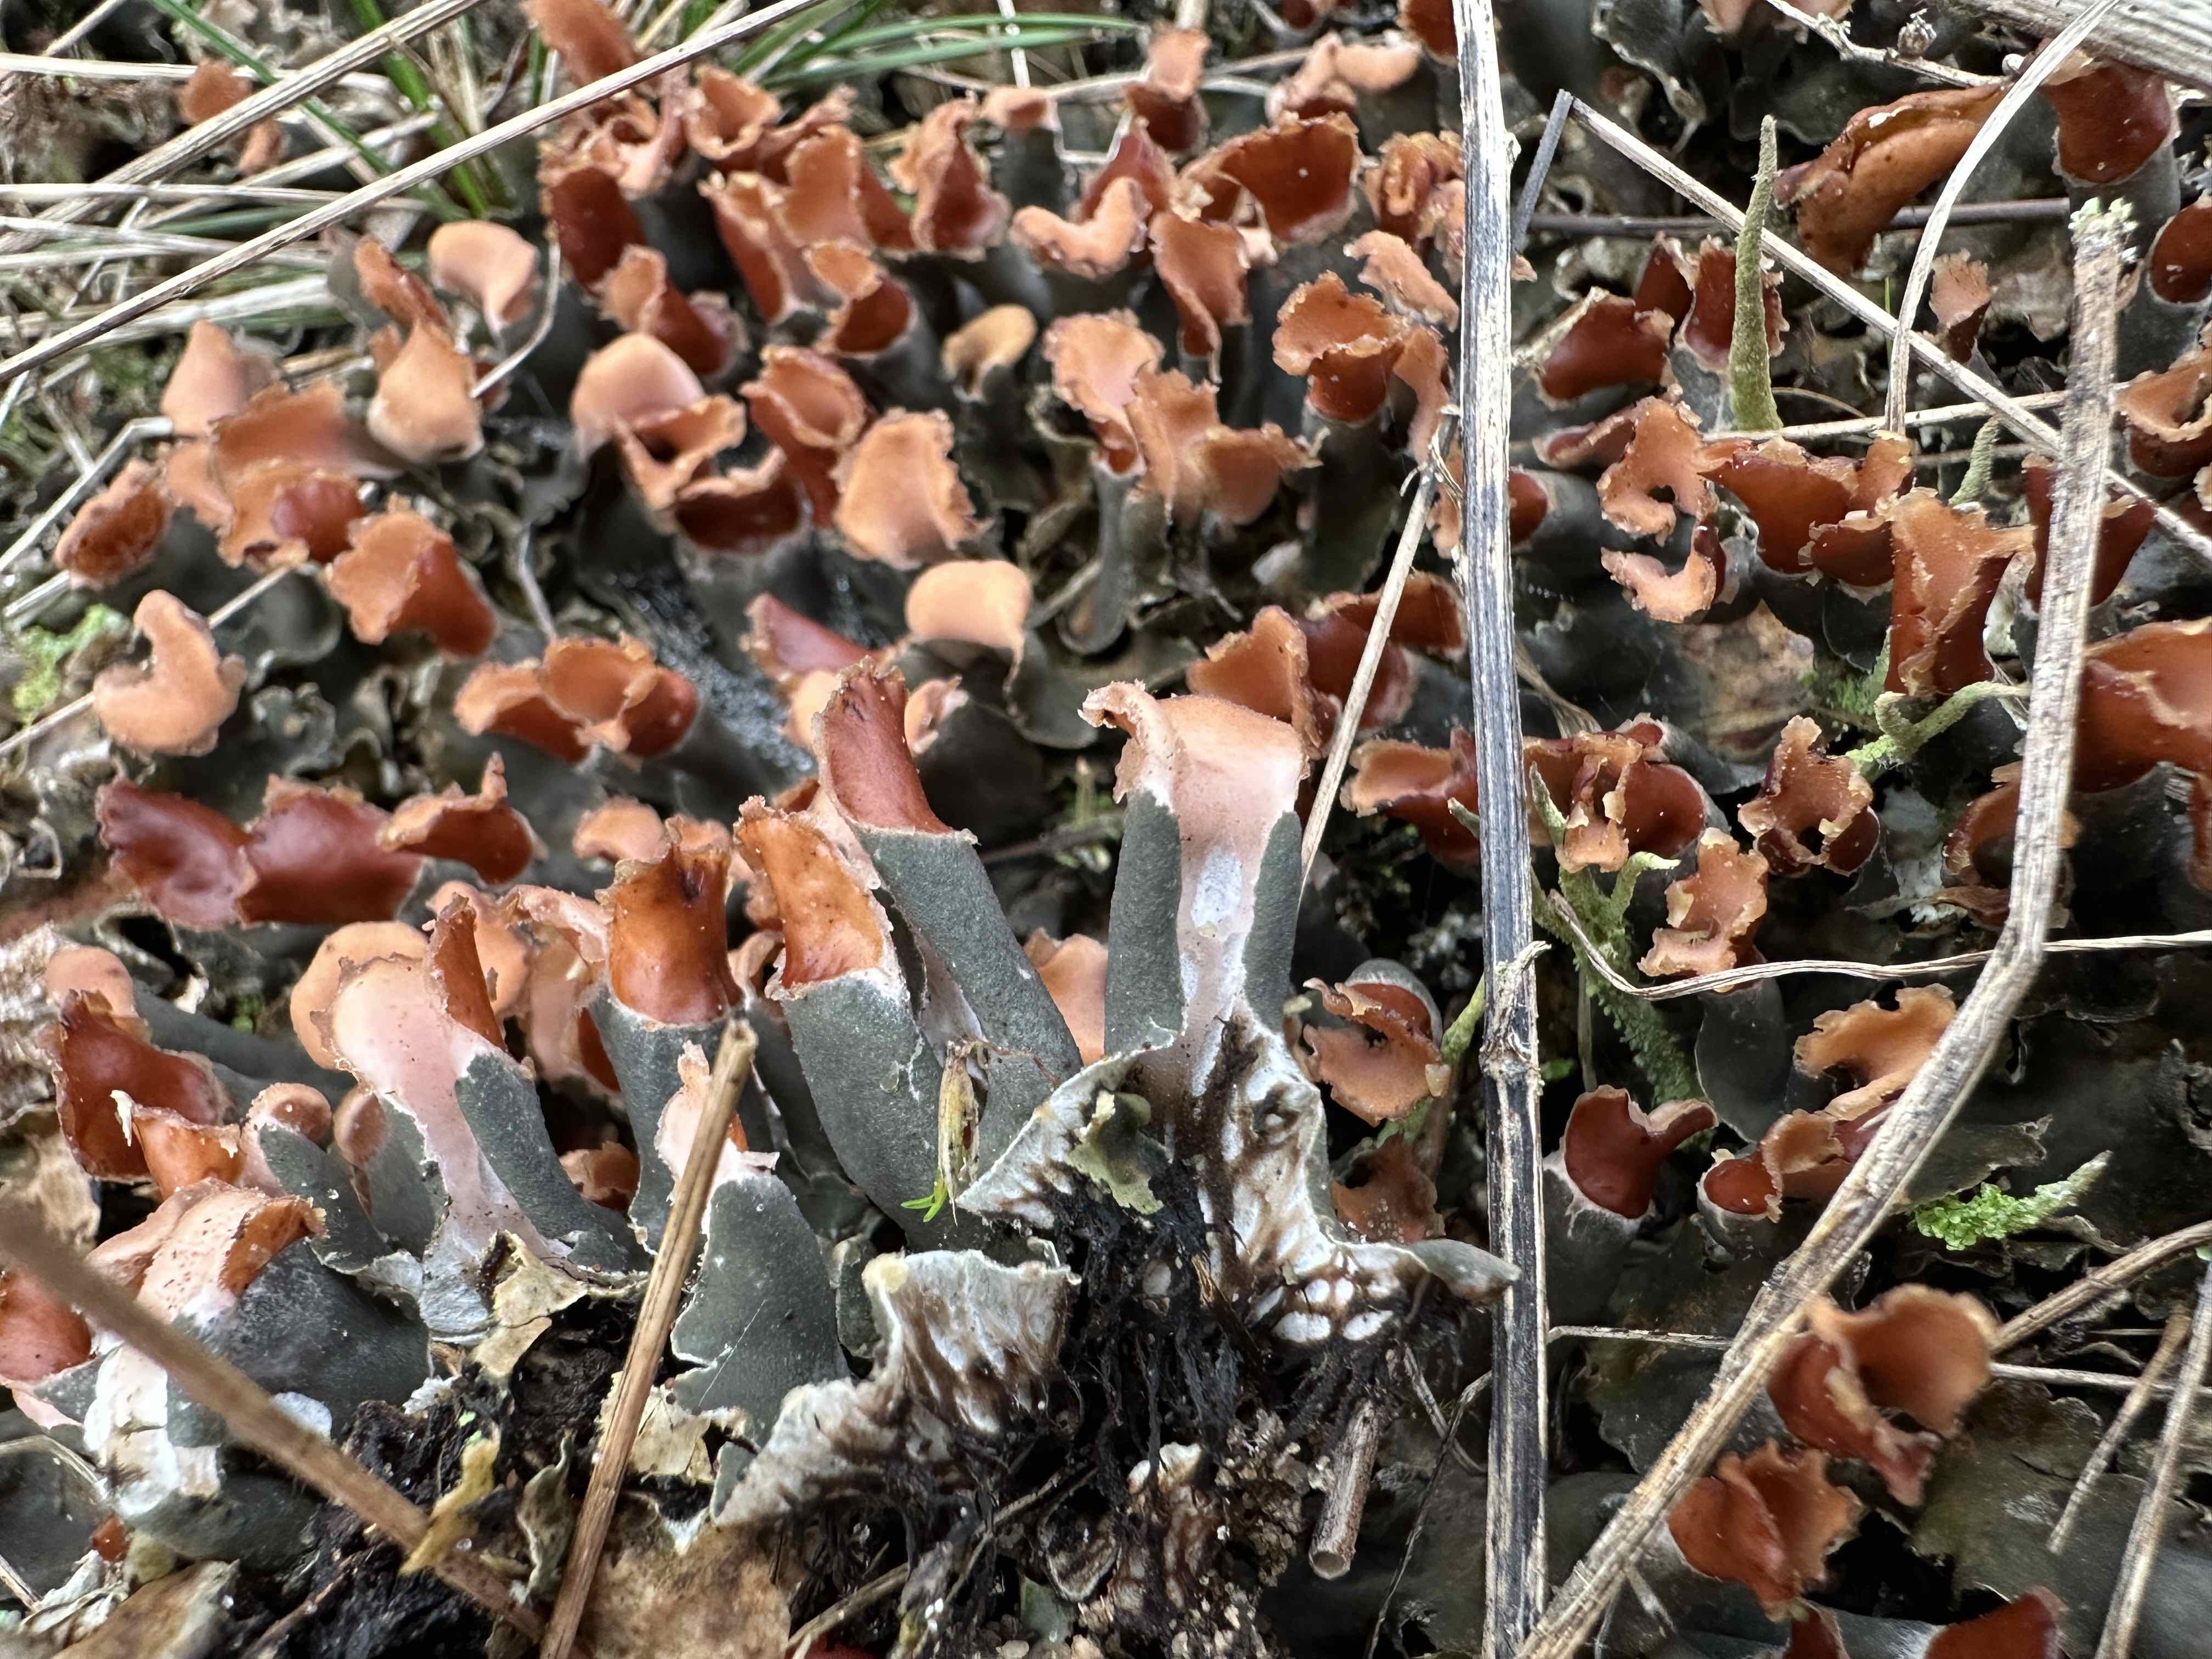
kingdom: Fungi
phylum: Ascomycota
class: Lecanoromycetes
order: Peltigerales
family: Peltigeraceae
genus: Peltigera
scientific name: Peltigera didactyla
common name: liden skjoldlav
